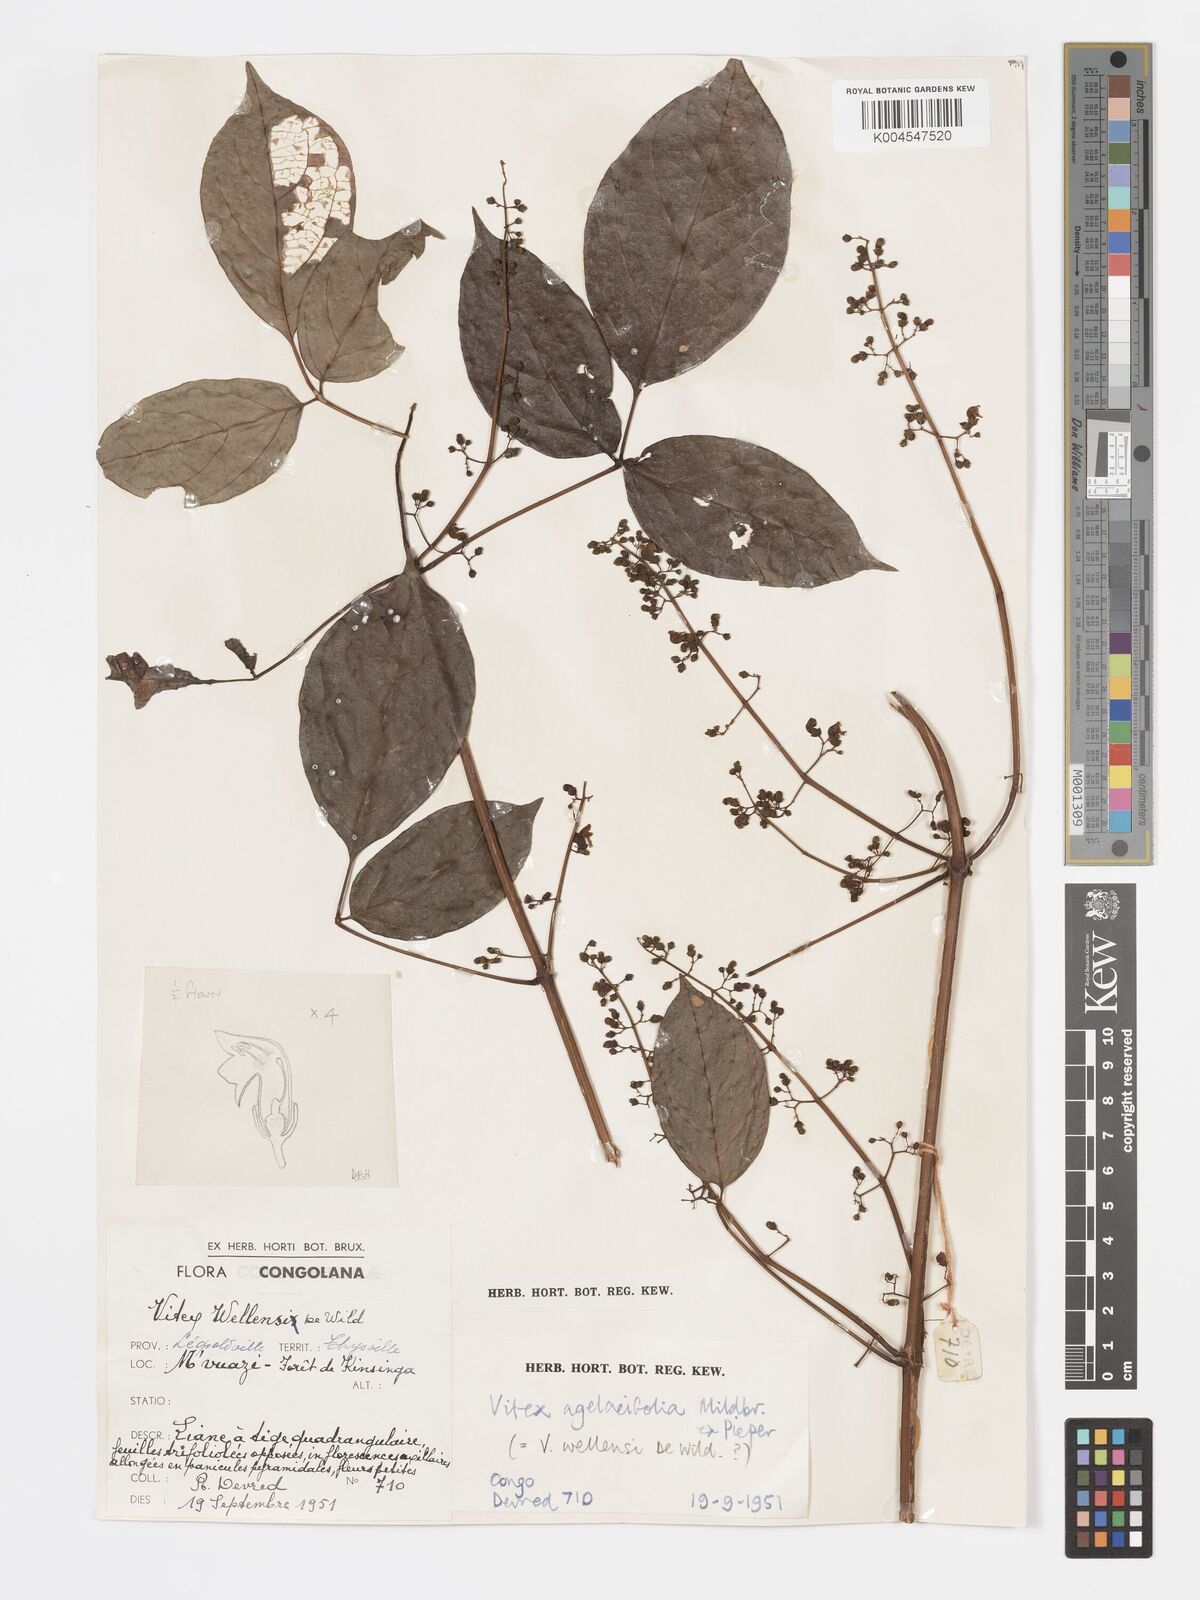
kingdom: Plantae
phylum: Tracheophyta
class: Magnoliopsida
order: Lamiales
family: Lamiaceae
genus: Vitex
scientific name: Vitex agelaeifolia
